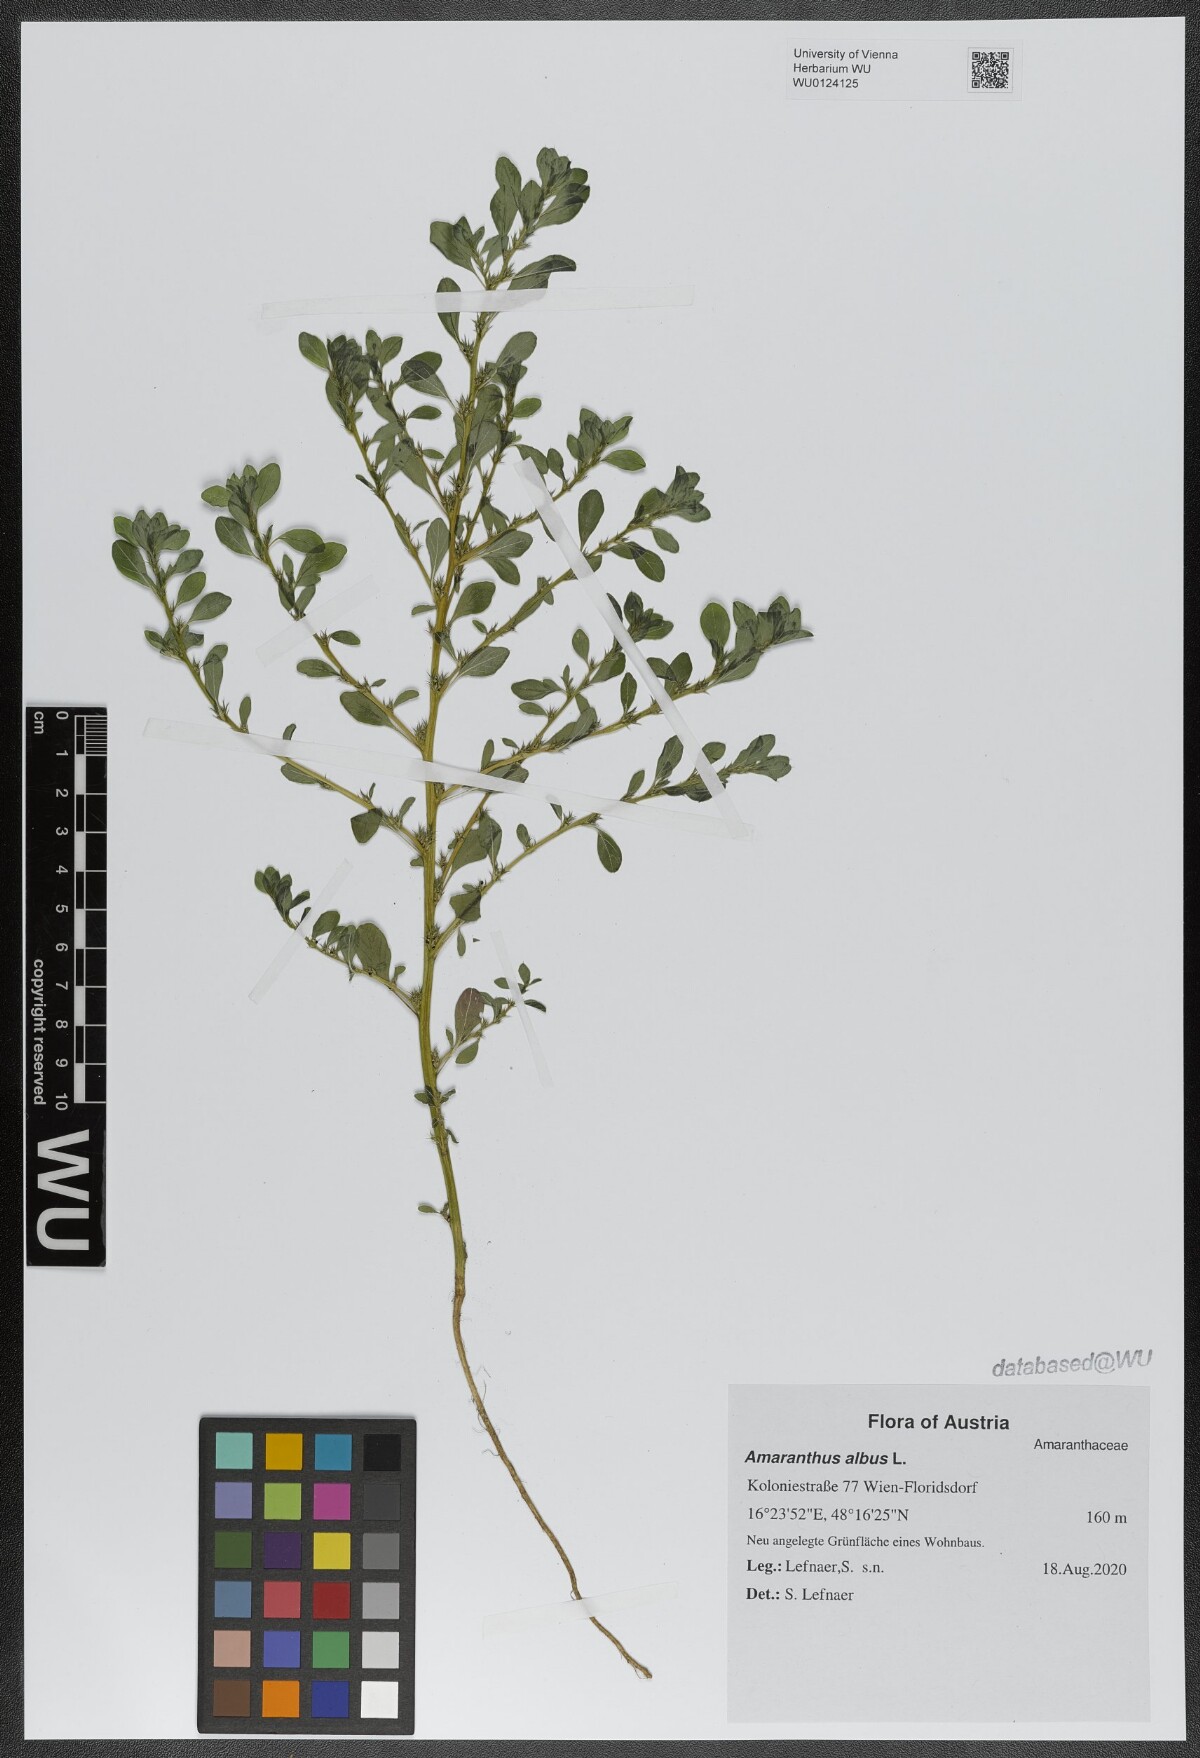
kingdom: Plantae
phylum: Tracheophyta
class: Magnoliopsida
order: Caryophyllales
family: Amaranthaceae
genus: Amaranthus
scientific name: Amaranthus albus
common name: White pigweed
